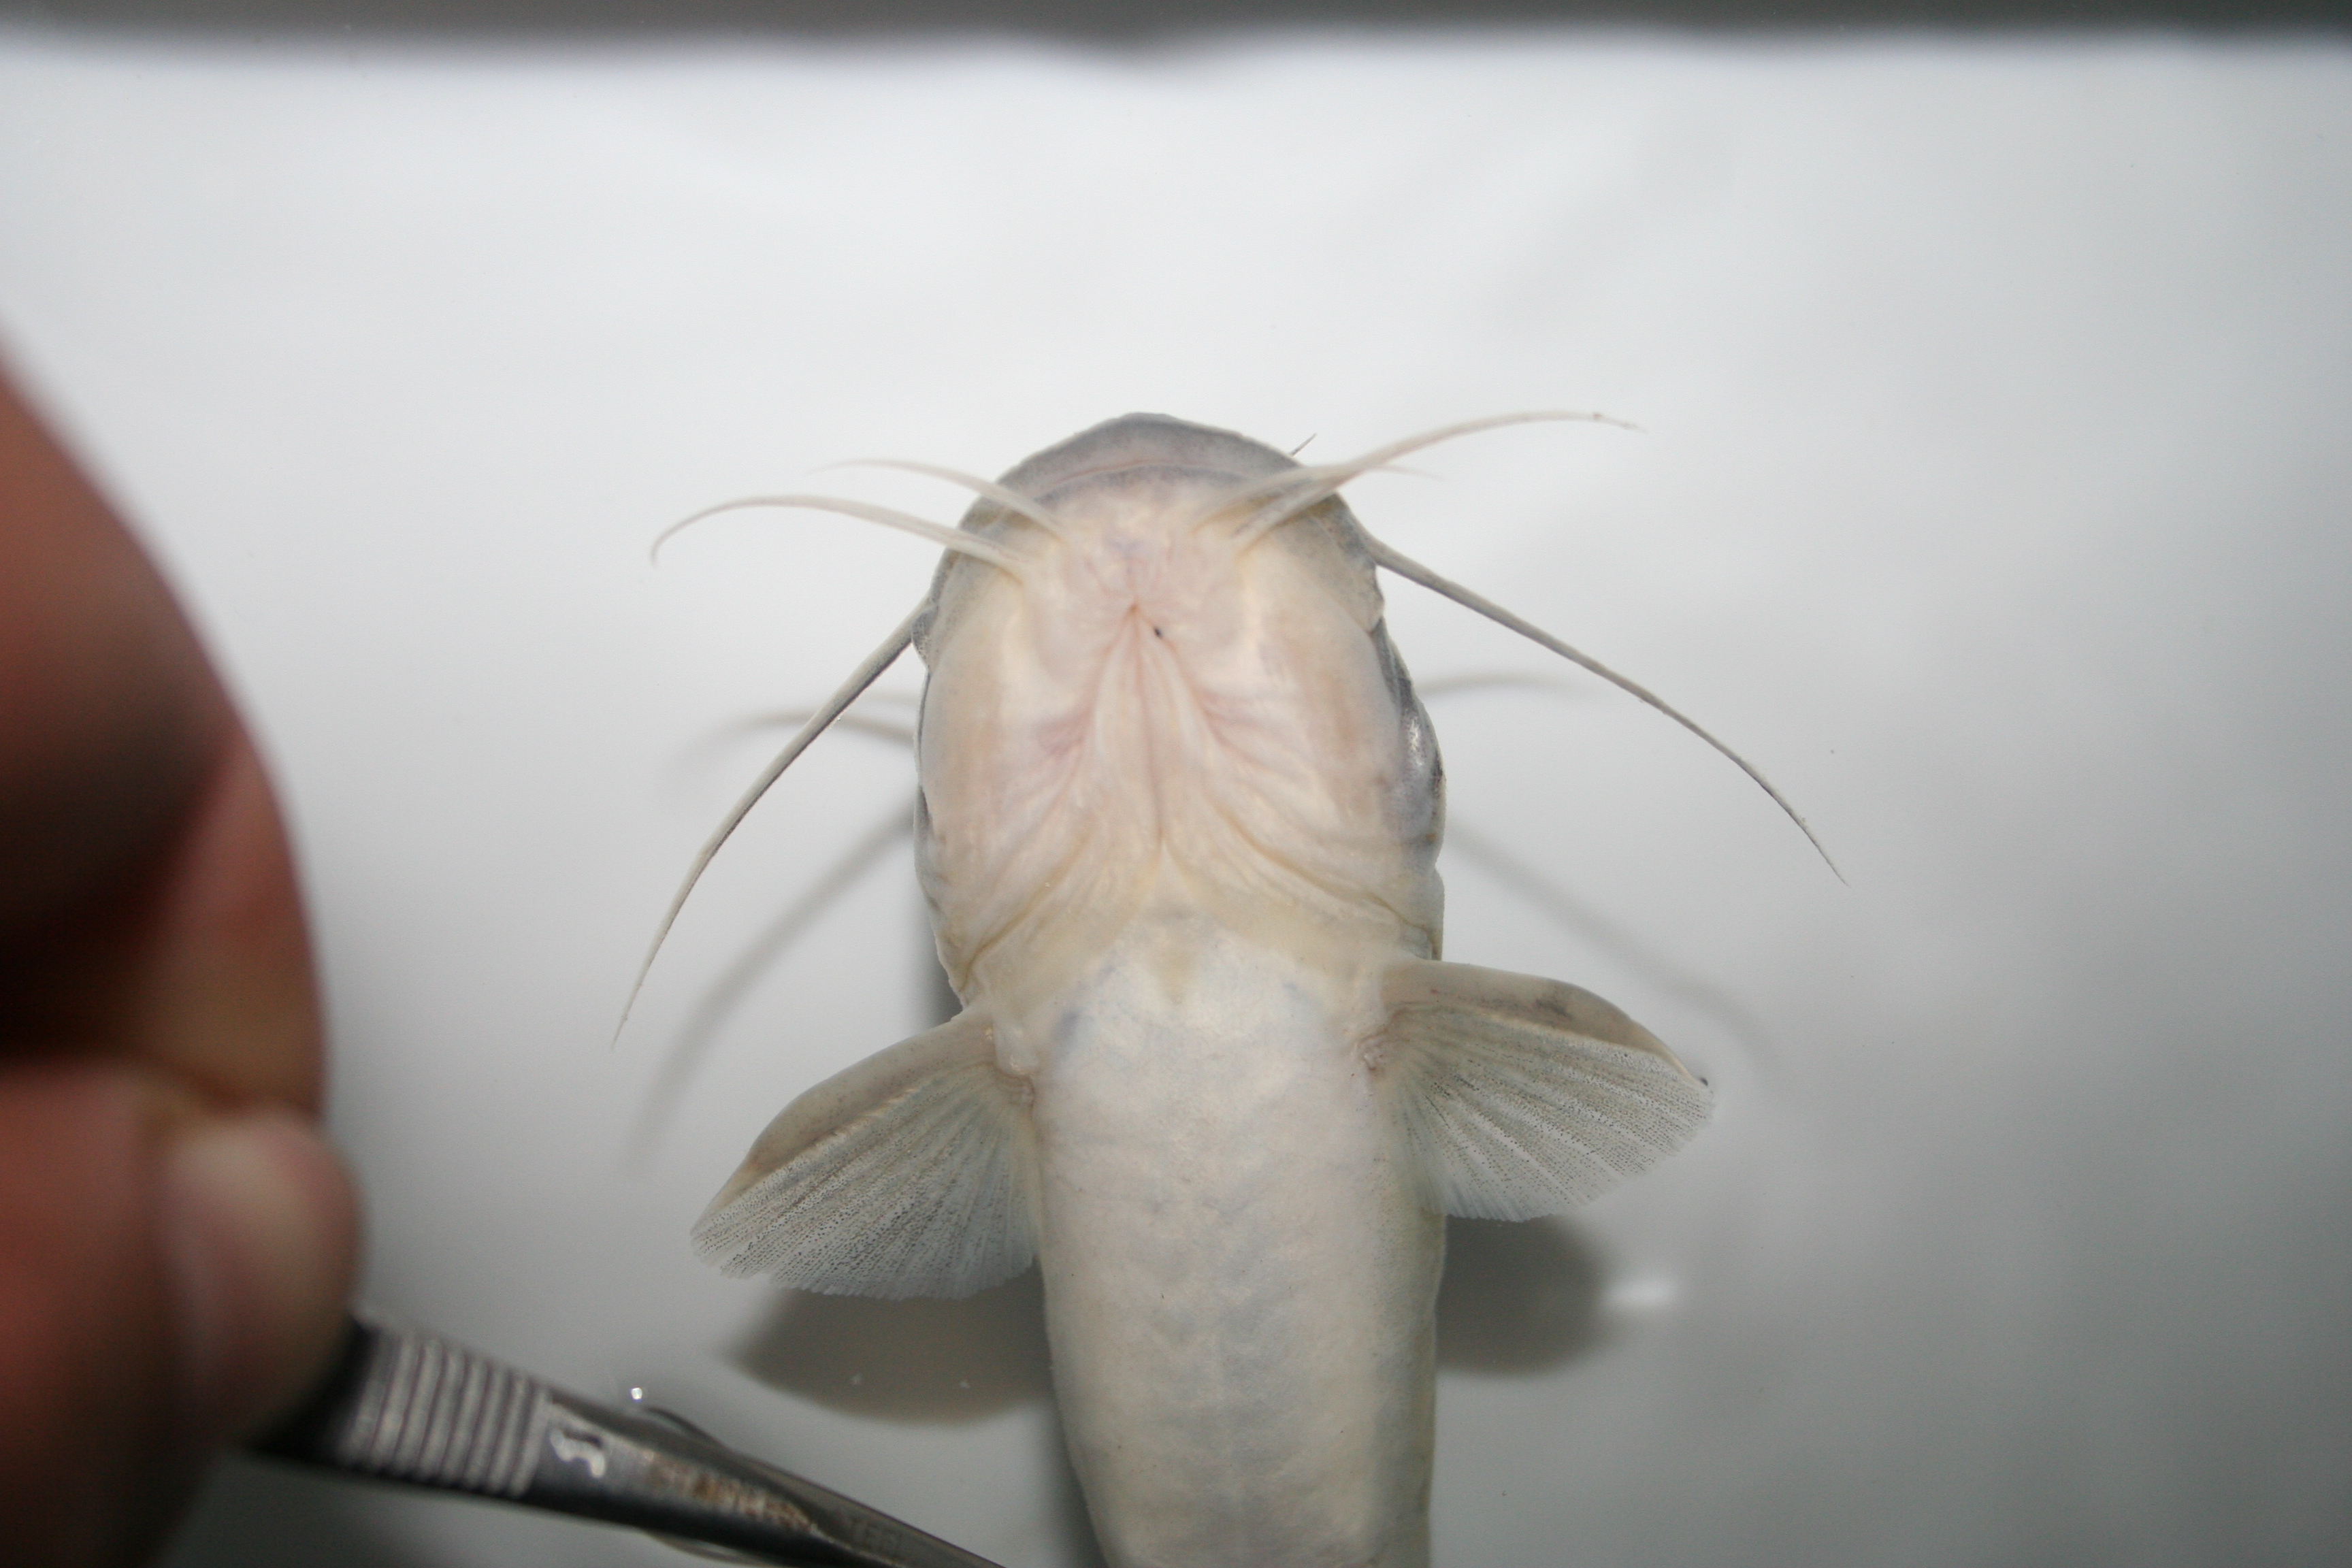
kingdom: Animalia
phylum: Chordata
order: Siluriformes
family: Claroteidae
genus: Chrysichthys
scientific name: Chrysichthys ansorgii
